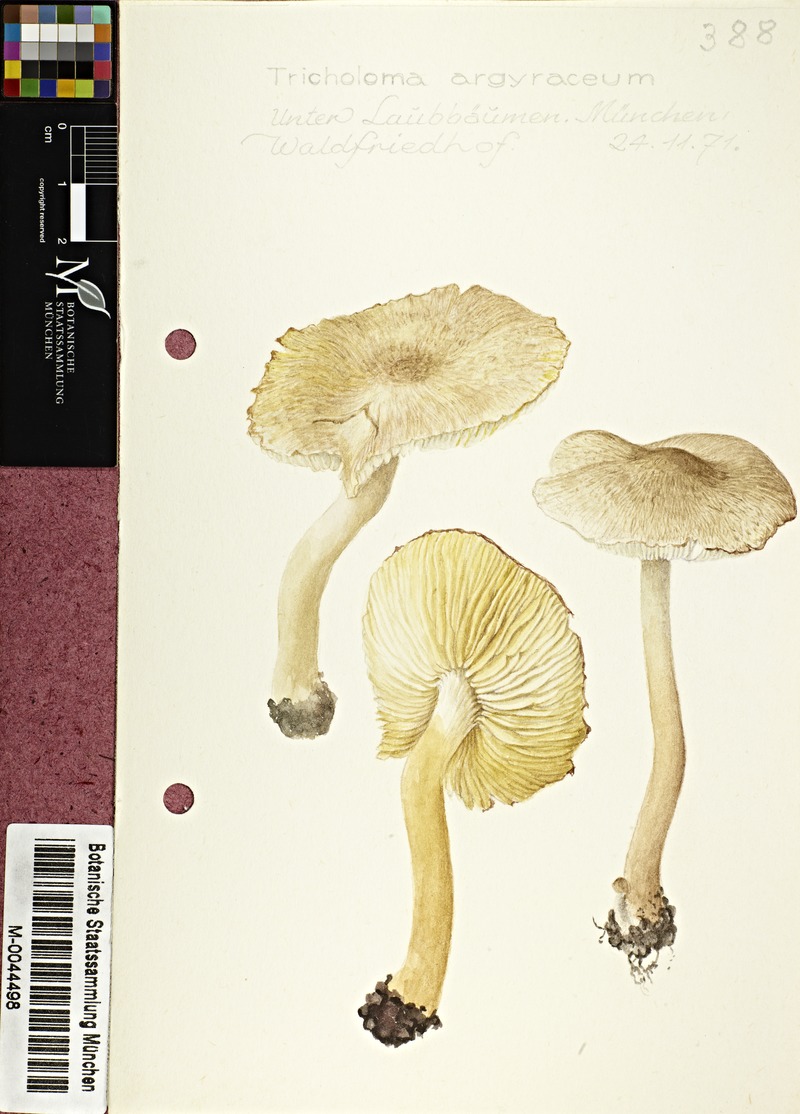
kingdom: Fungi
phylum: Basidiomycota
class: Agaricomycetes
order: Agaricales
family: Tricholomataceae
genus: Tricholoma
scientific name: Tricholoma argyraceum
